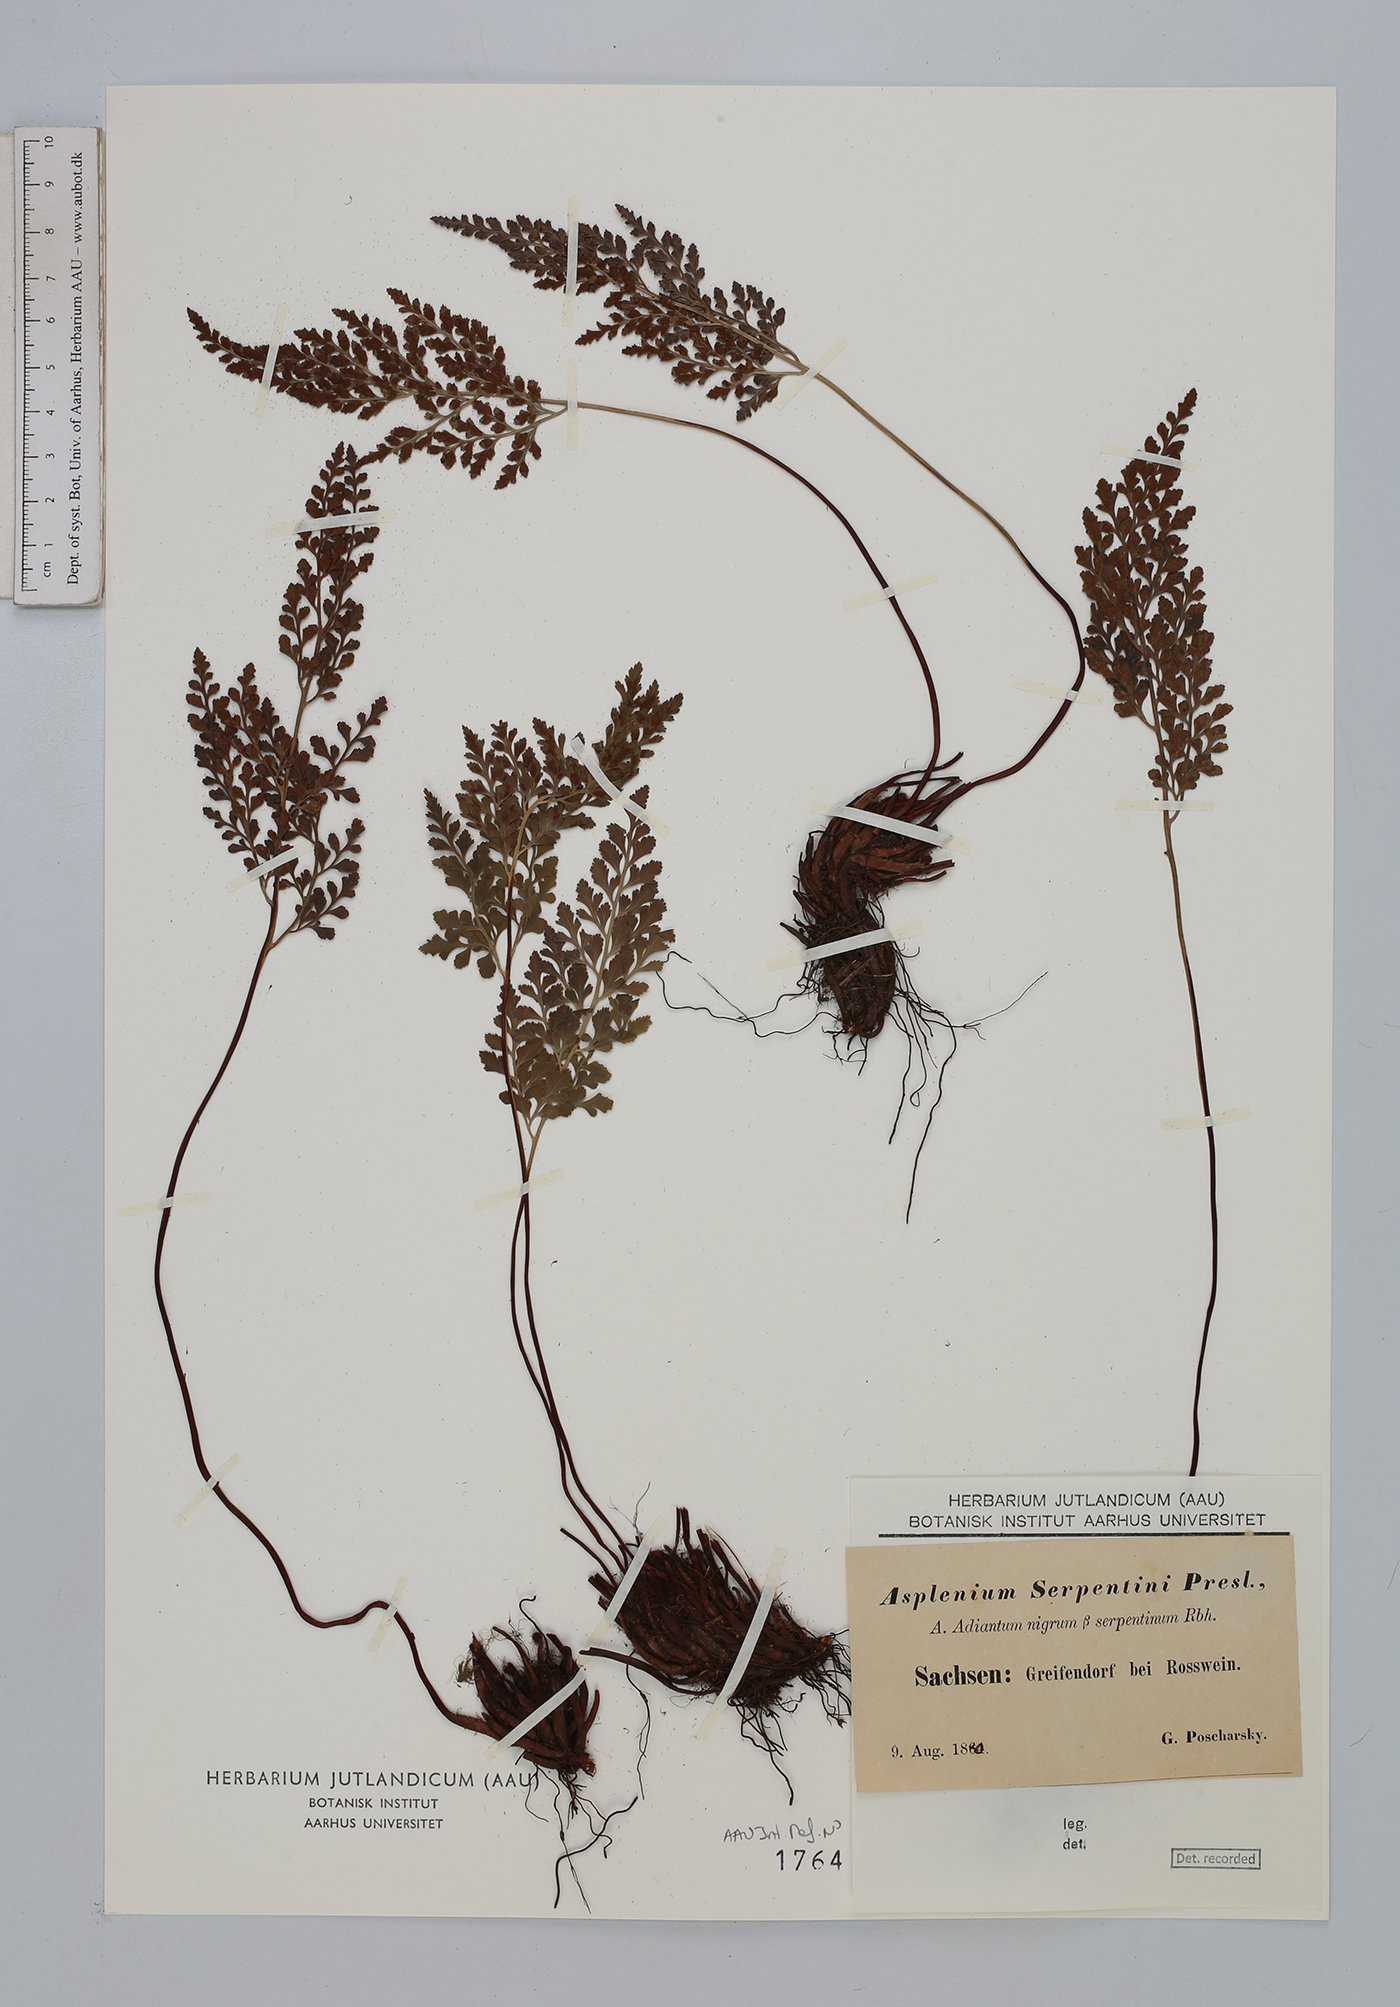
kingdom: Plantae
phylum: Tracheophyta
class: Polypodiopsida
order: Polypodiales
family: Aspleniaceae
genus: Asplenium
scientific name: Asplenium cuneifolium
